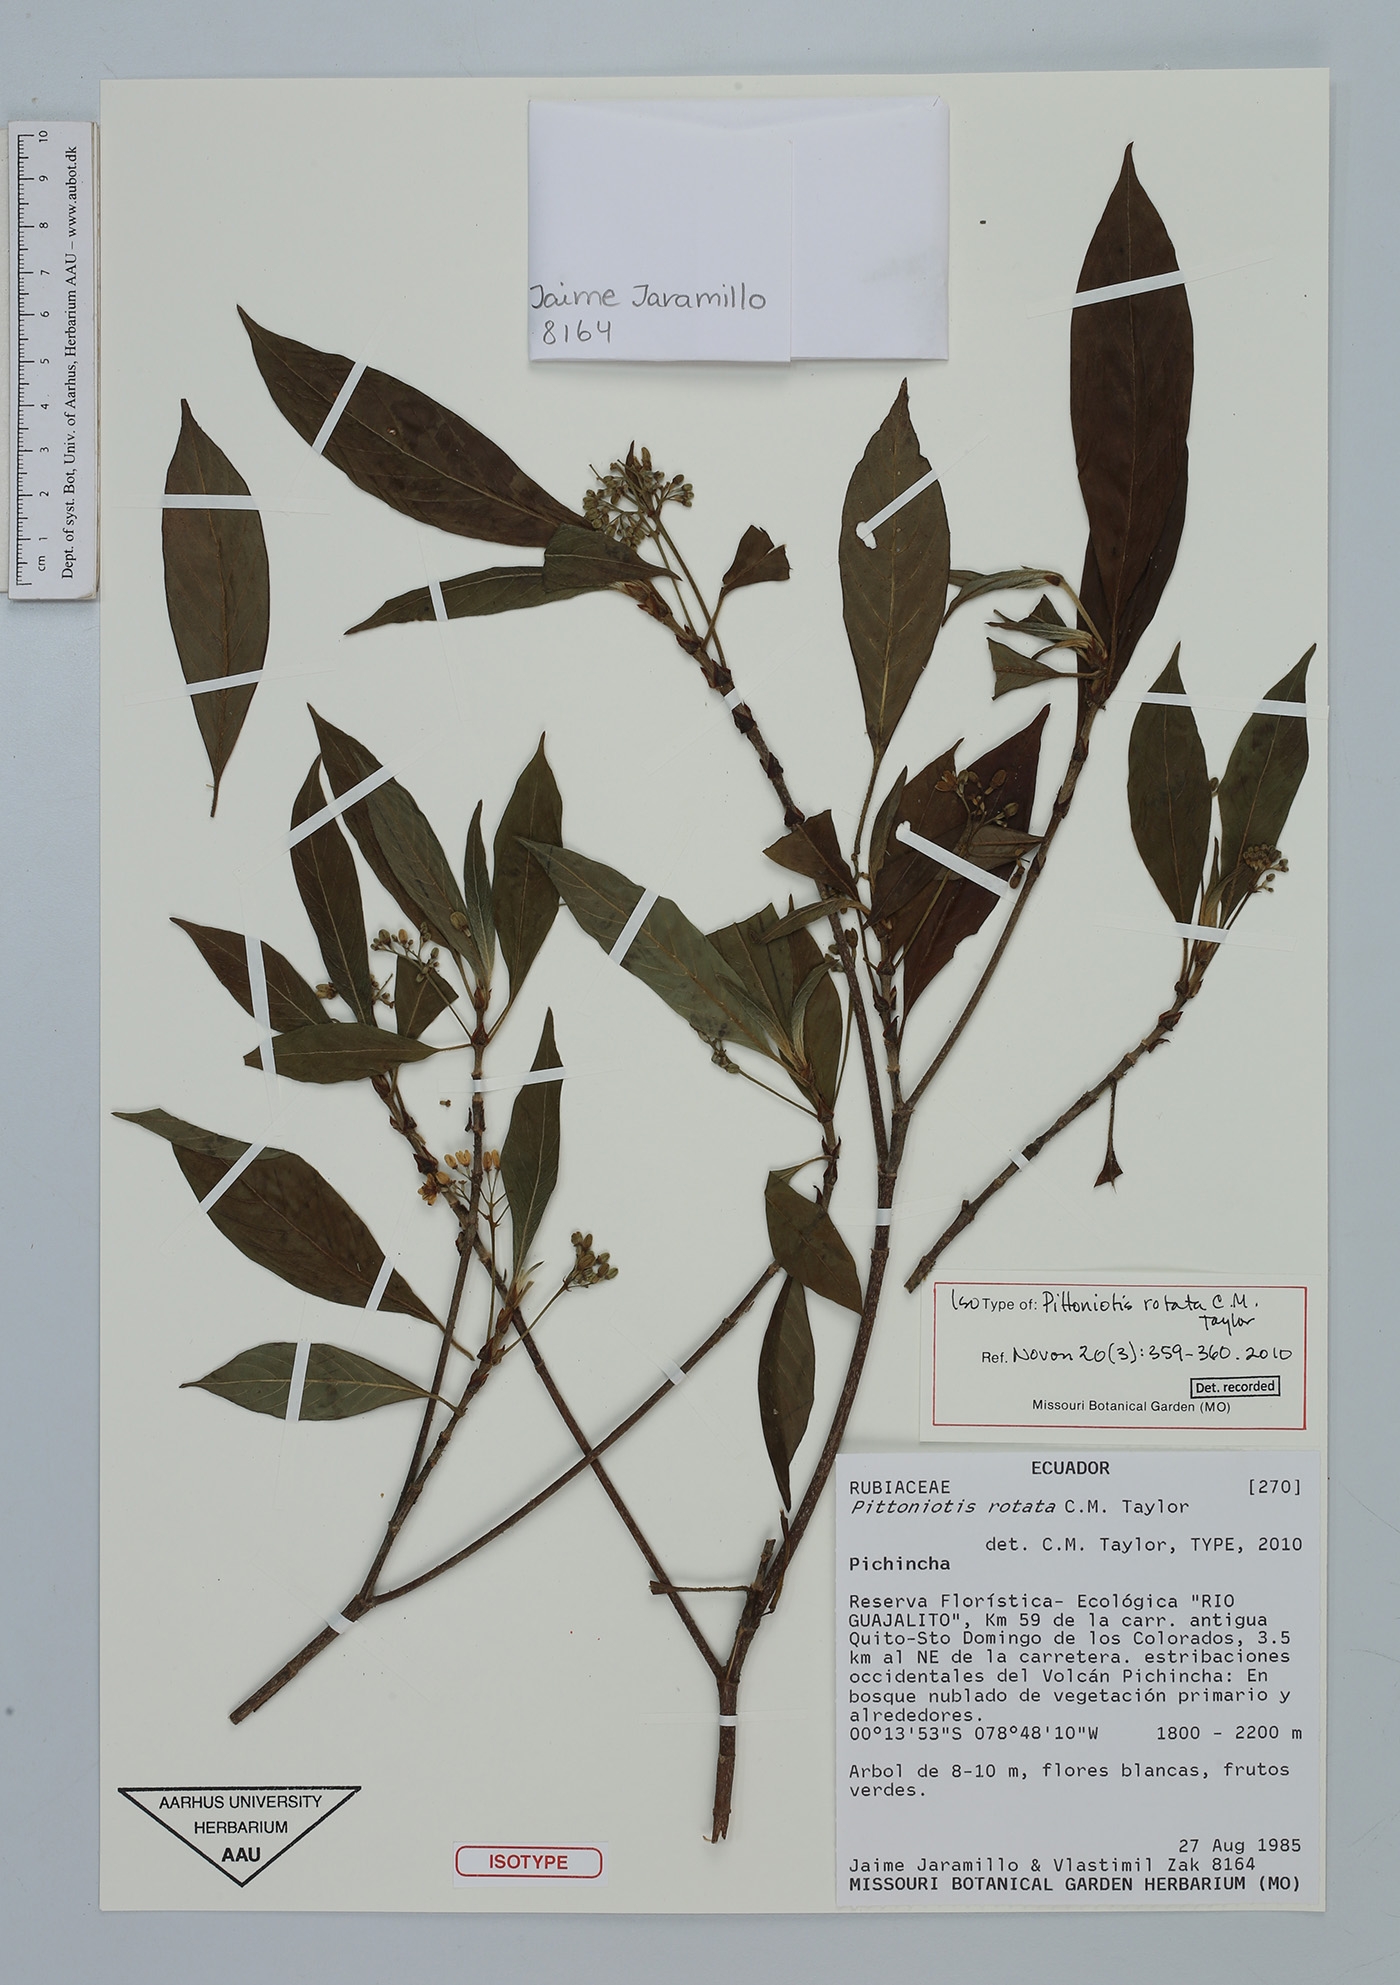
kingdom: Plantae
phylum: Tracheophyta
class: Magnoliopsida
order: Gentianales
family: Rubiaceae
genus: Pittoniotis
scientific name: Pittoniotis rotata
